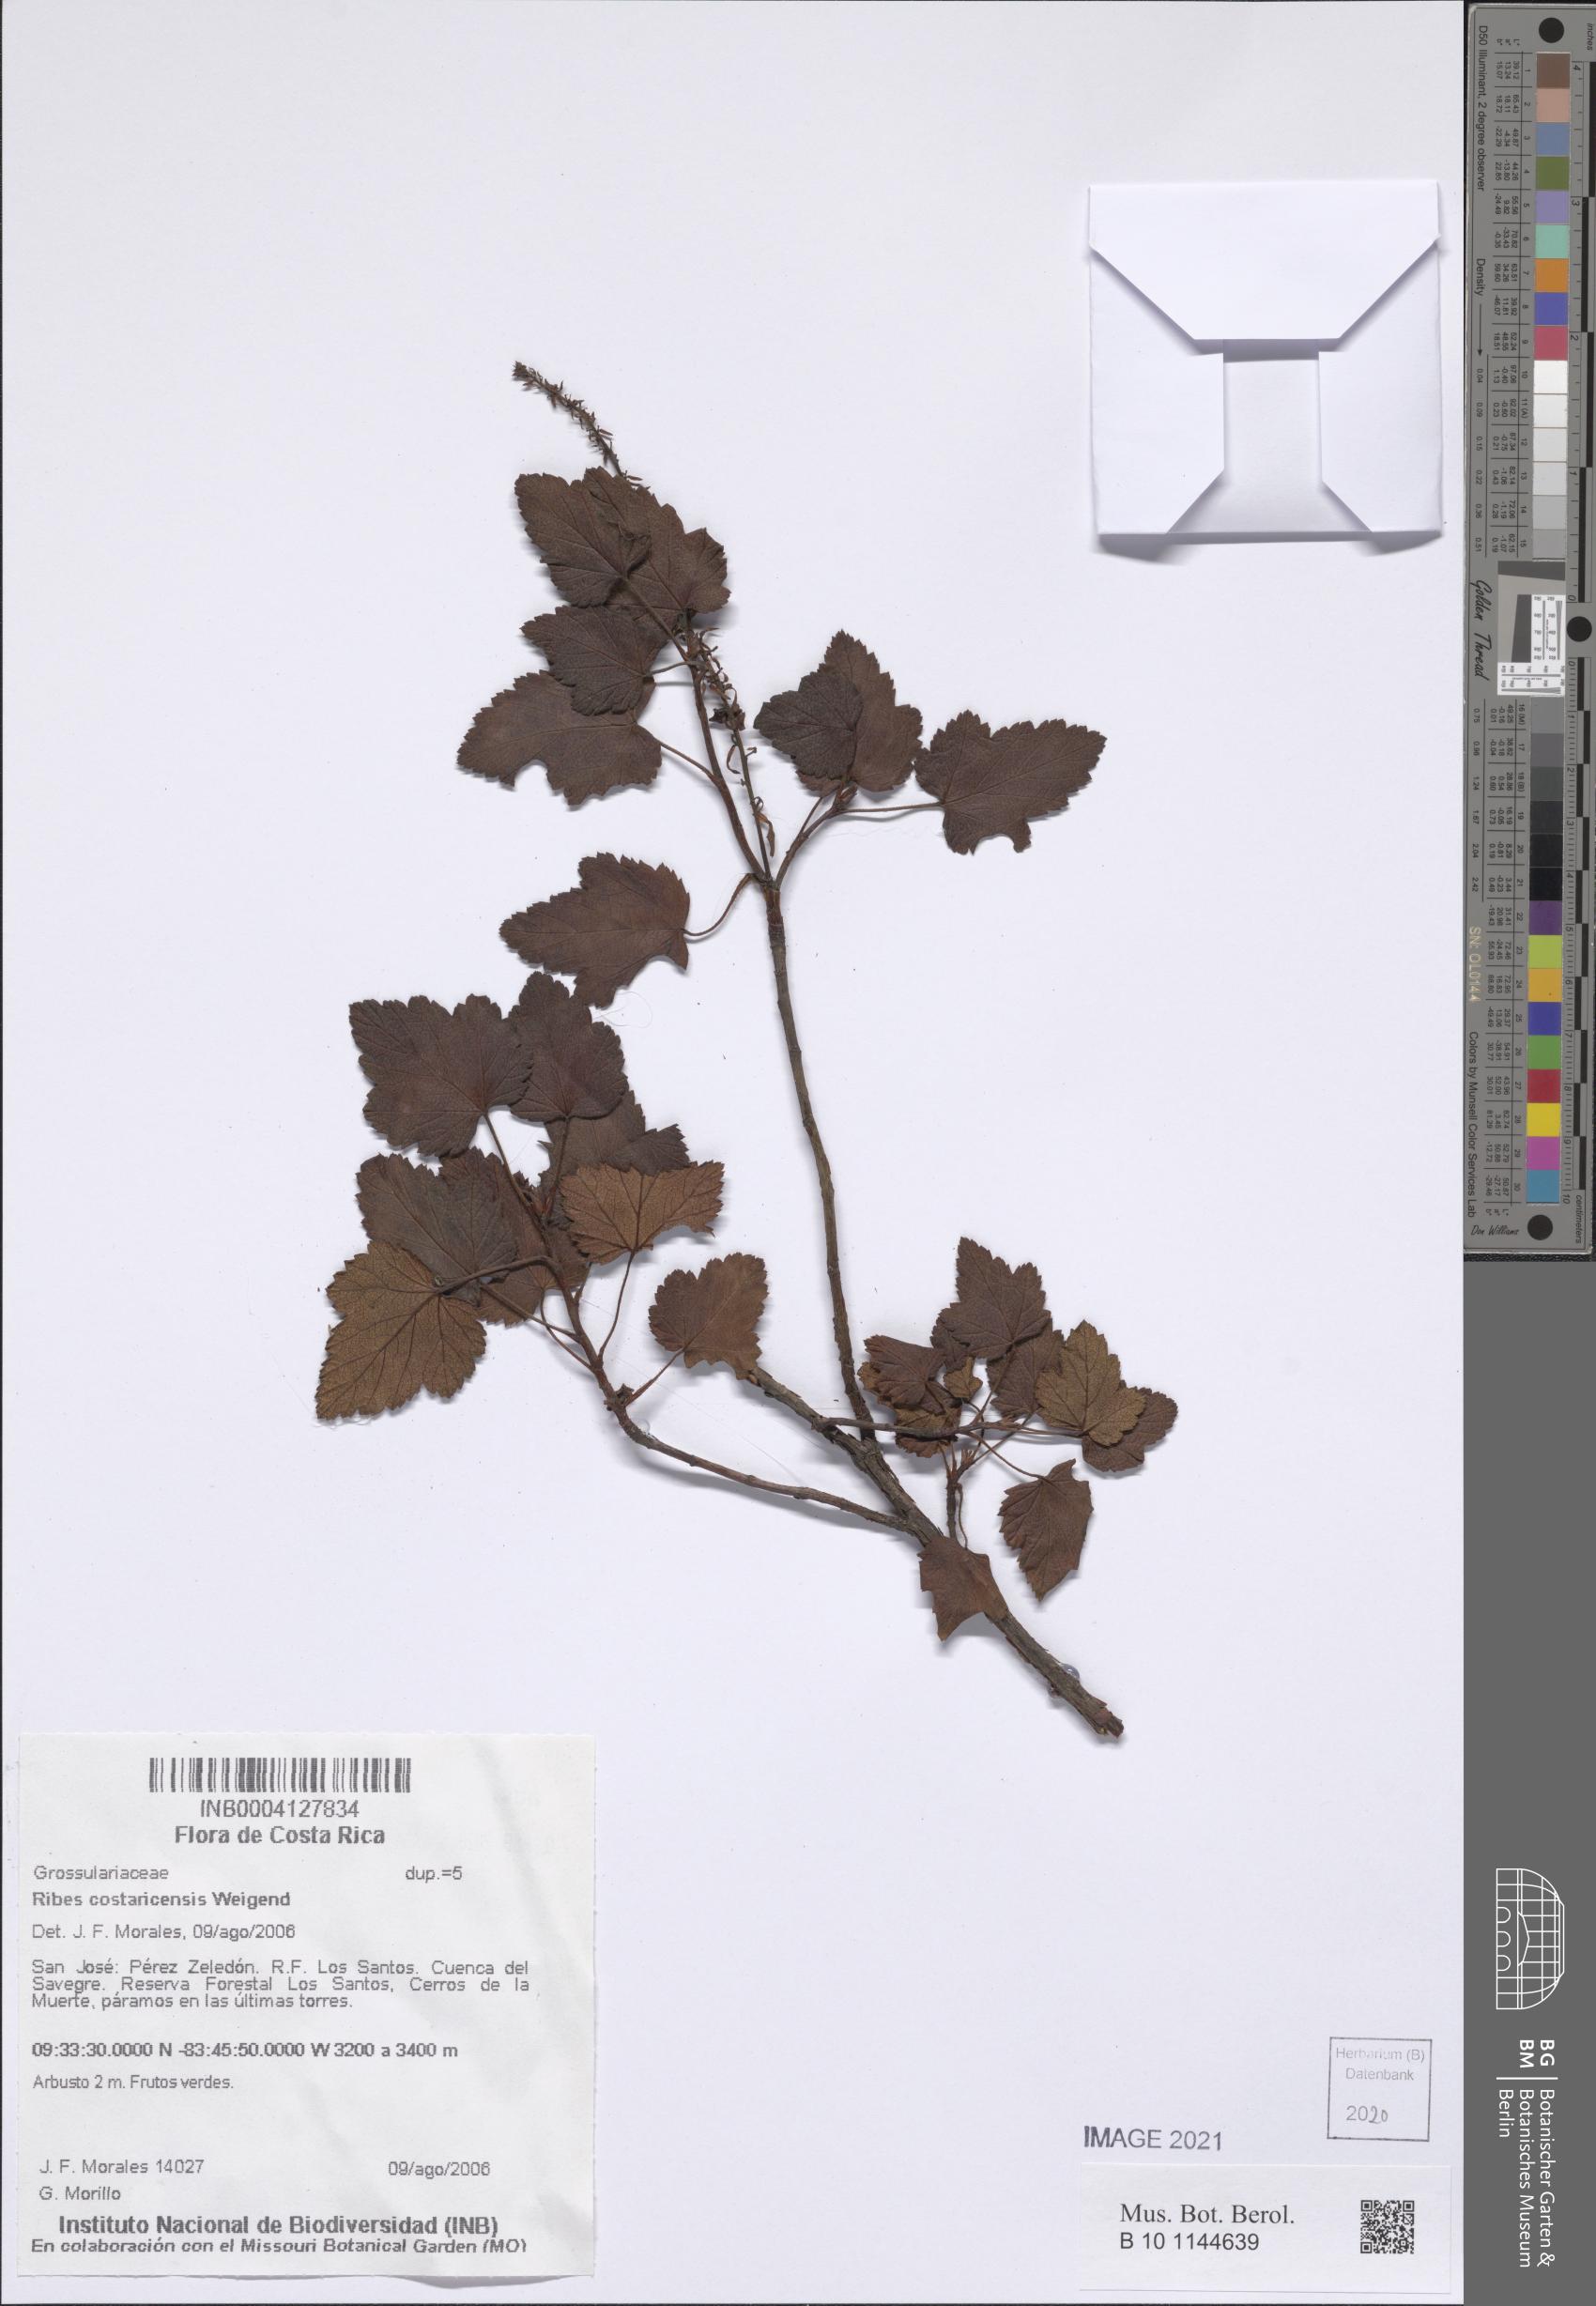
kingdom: Plantae
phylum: Tracheophyta
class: Magnoliopsida
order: Saxifragales
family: Grossulariaceae
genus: Ribes
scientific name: Ribes costaricensis
